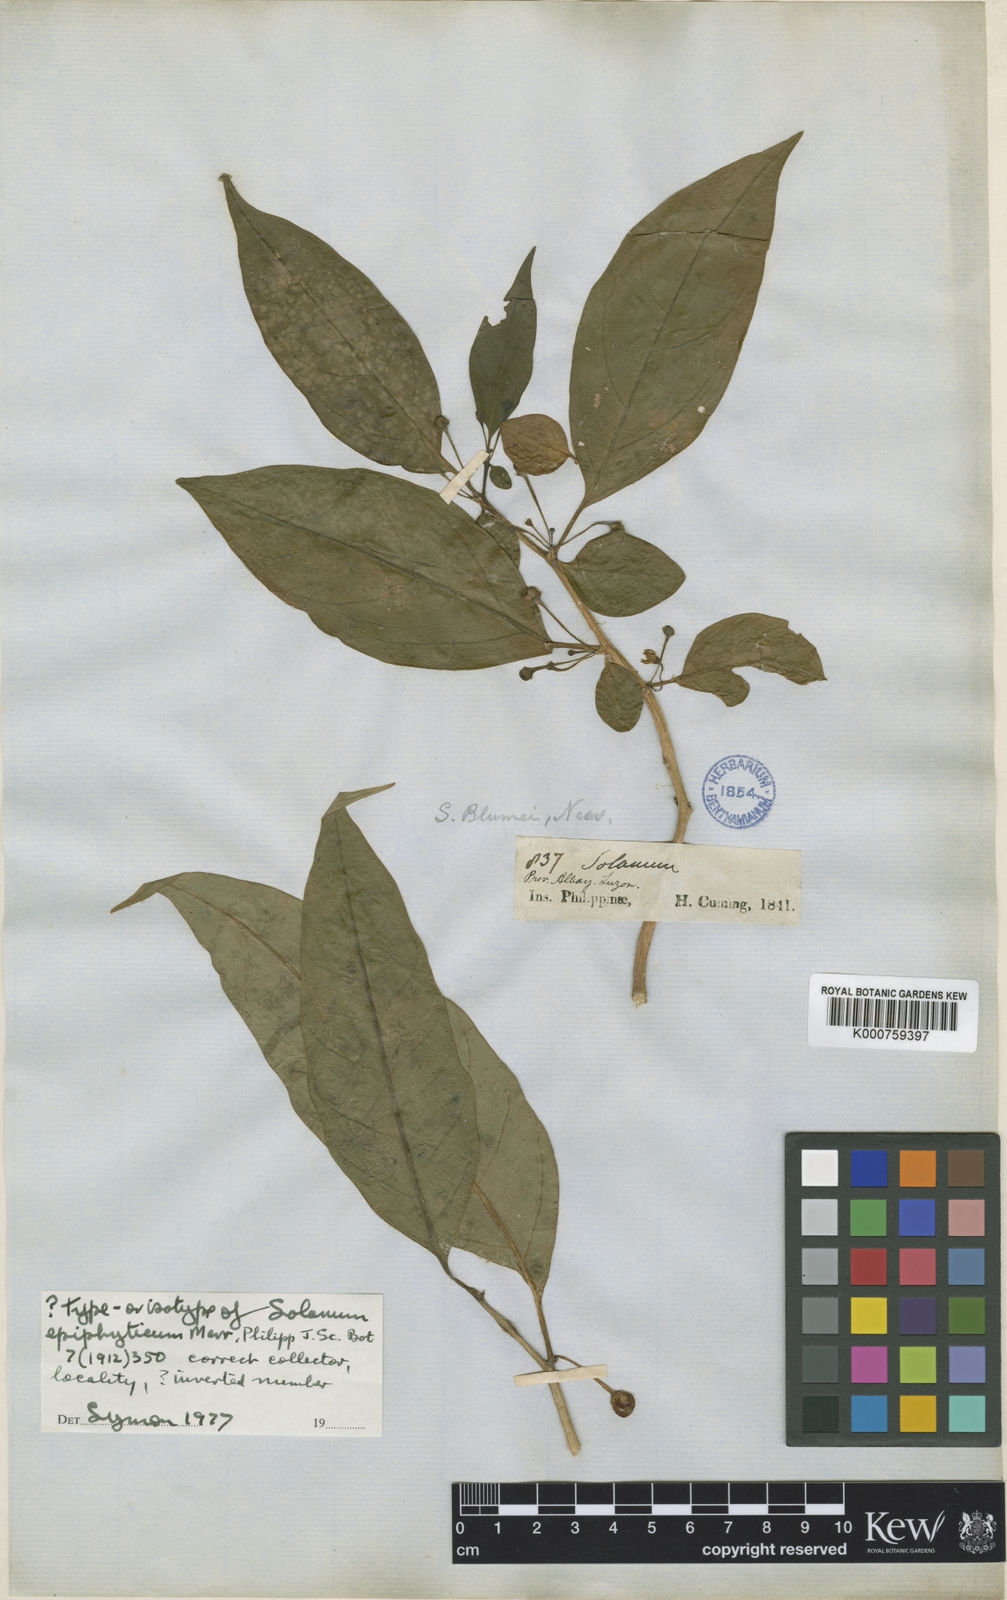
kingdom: Plantae
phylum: Tracheophyta
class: Magnoliopsida
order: Solanales
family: Solanaceae
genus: Lycianthes
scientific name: Lycianthes parasitica
